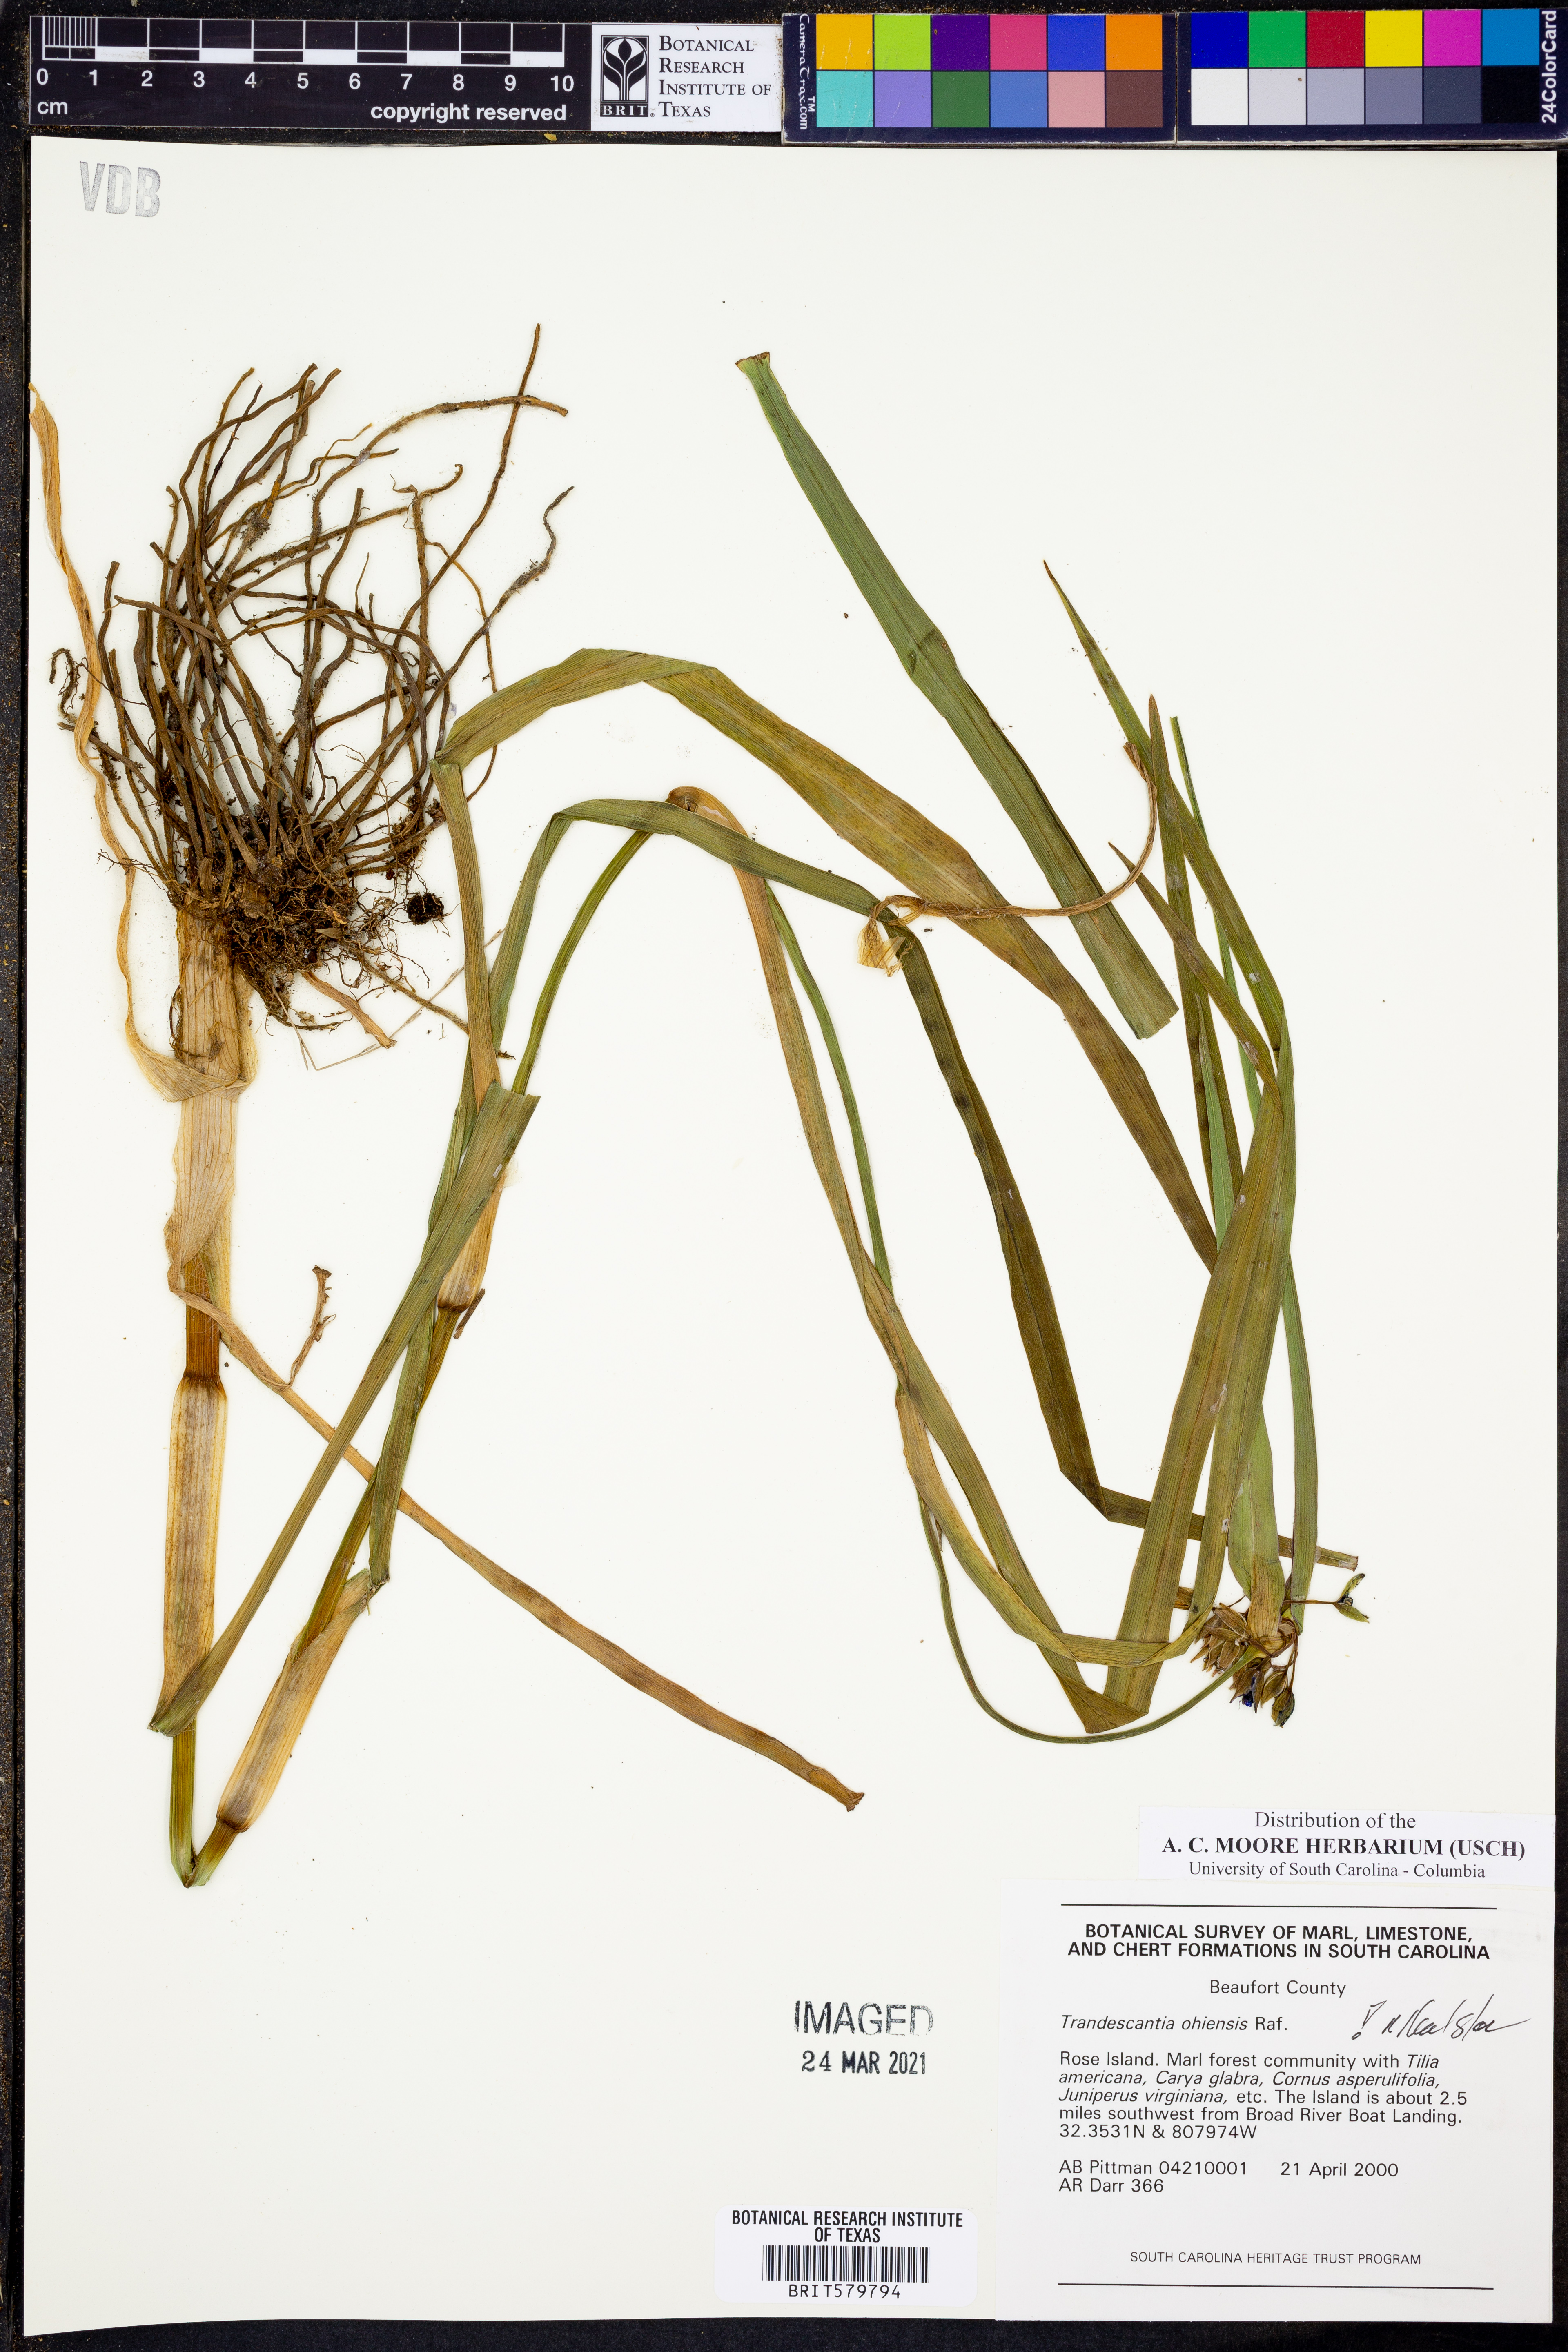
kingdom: Plantae
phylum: Tracheophyta
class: Liliopsida
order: Commelinales
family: Commelinaceae
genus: Tradescantia
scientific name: Tradescantia ohiensis
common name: Ohio spiderwort
